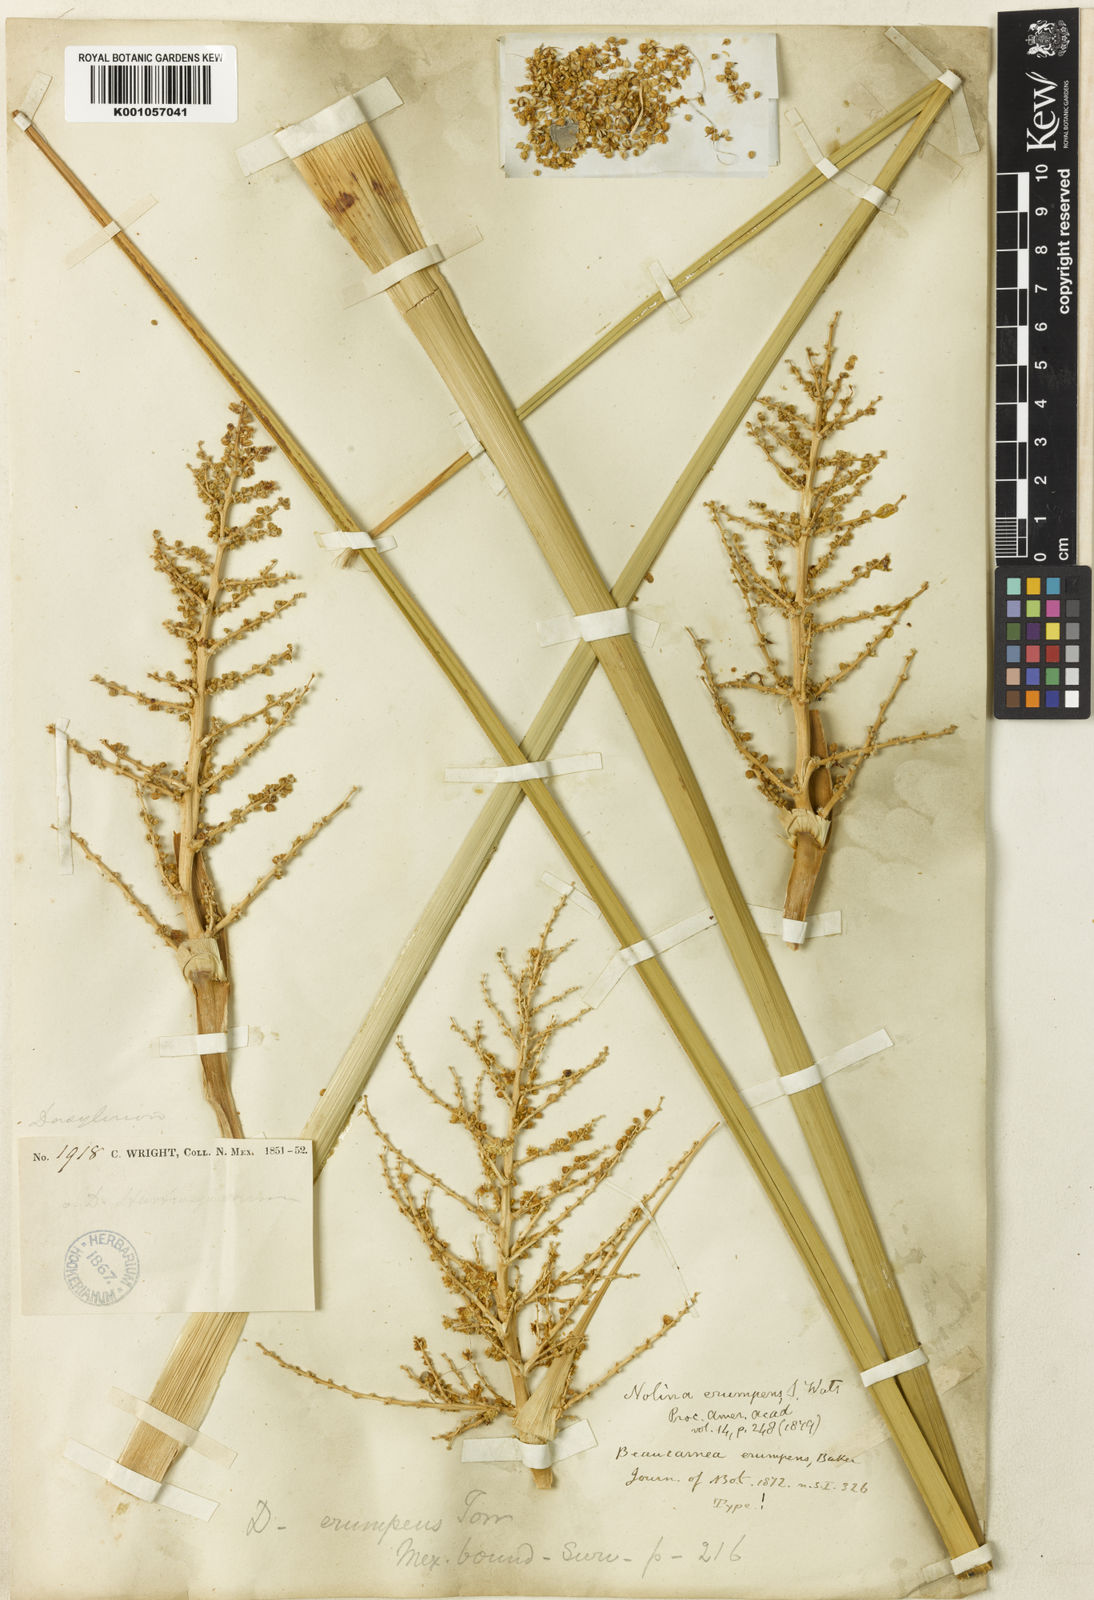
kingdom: Plantae
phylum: Tracheophyta
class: Liliopsida
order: Asparagales
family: Asparagaceae
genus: Nolina
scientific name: Nolina erumpens
